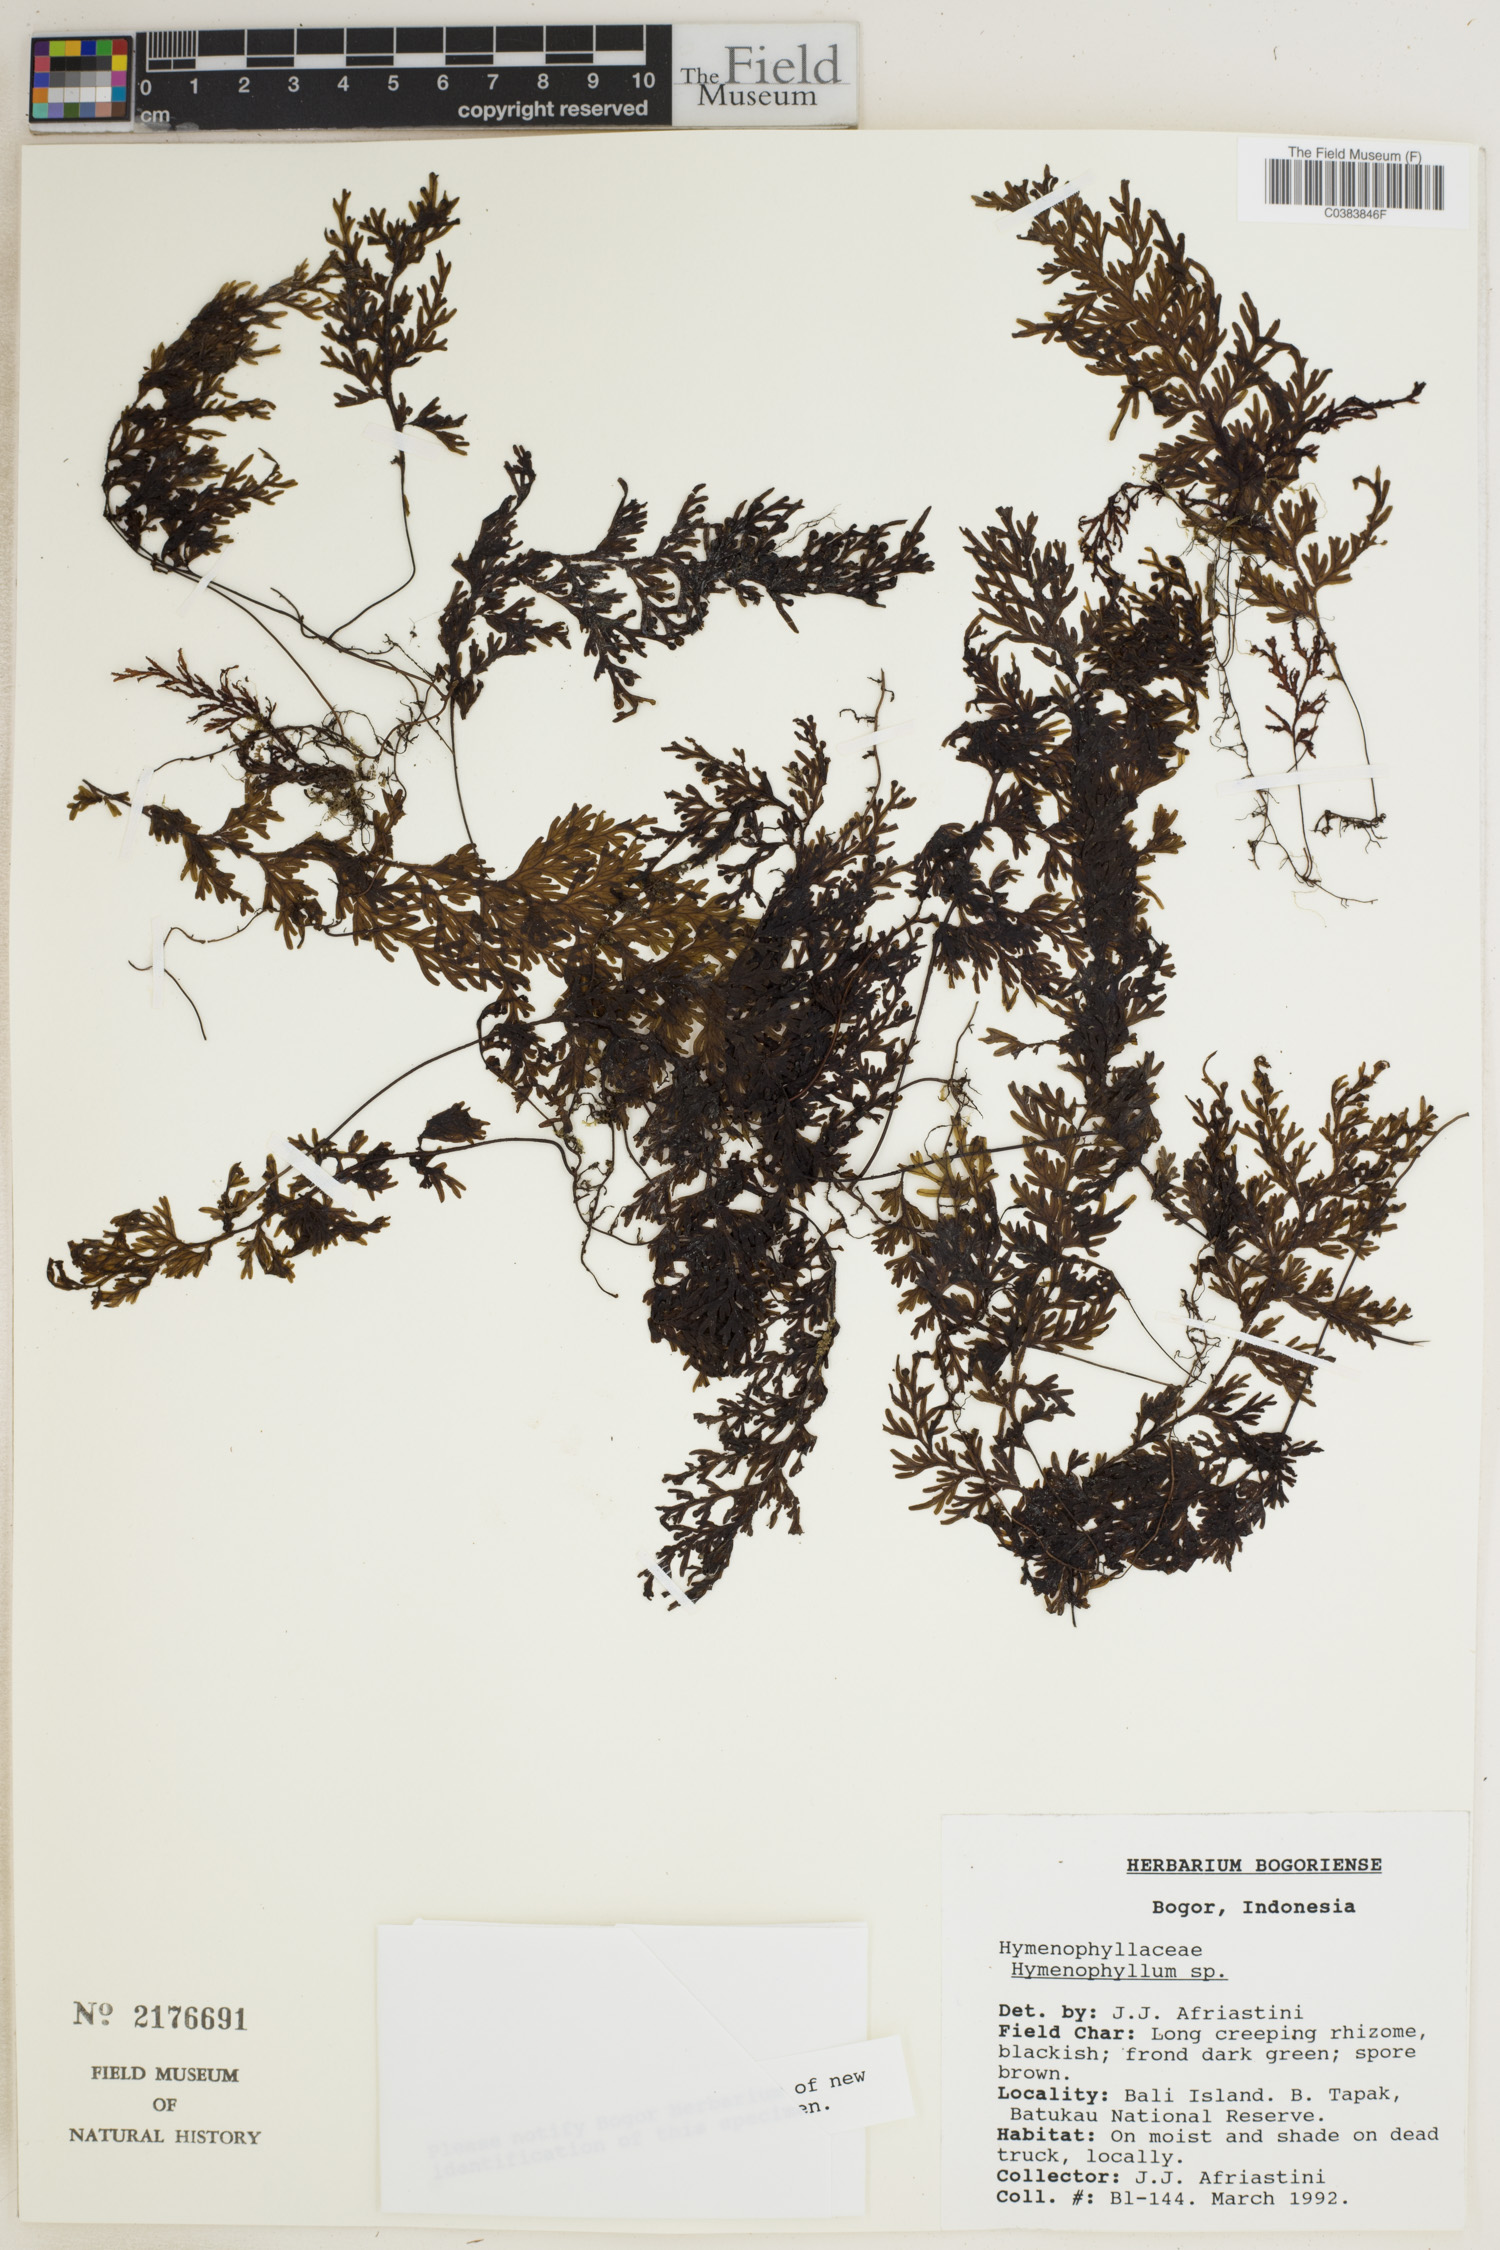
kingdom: Plantae
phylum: Tracheophyta
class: Polypodiopsida
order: Hymenophyllales
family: Hymenophyllaceae
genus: Hymenophyllum
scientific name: Hymenophyllum
